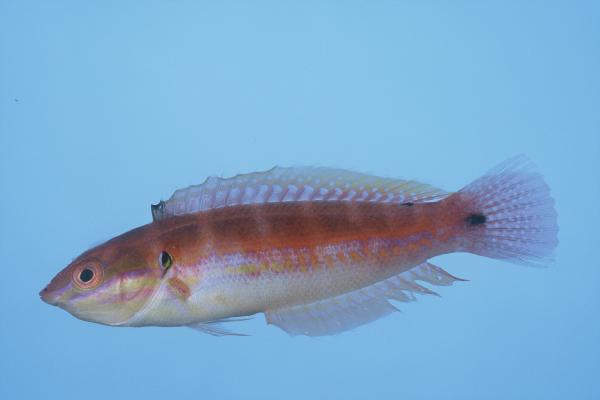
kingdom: Animalia
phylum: Chordata
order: Perciformes
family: Labridae
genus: Coris
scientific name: Coris caudimacula
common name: Spottail coris
